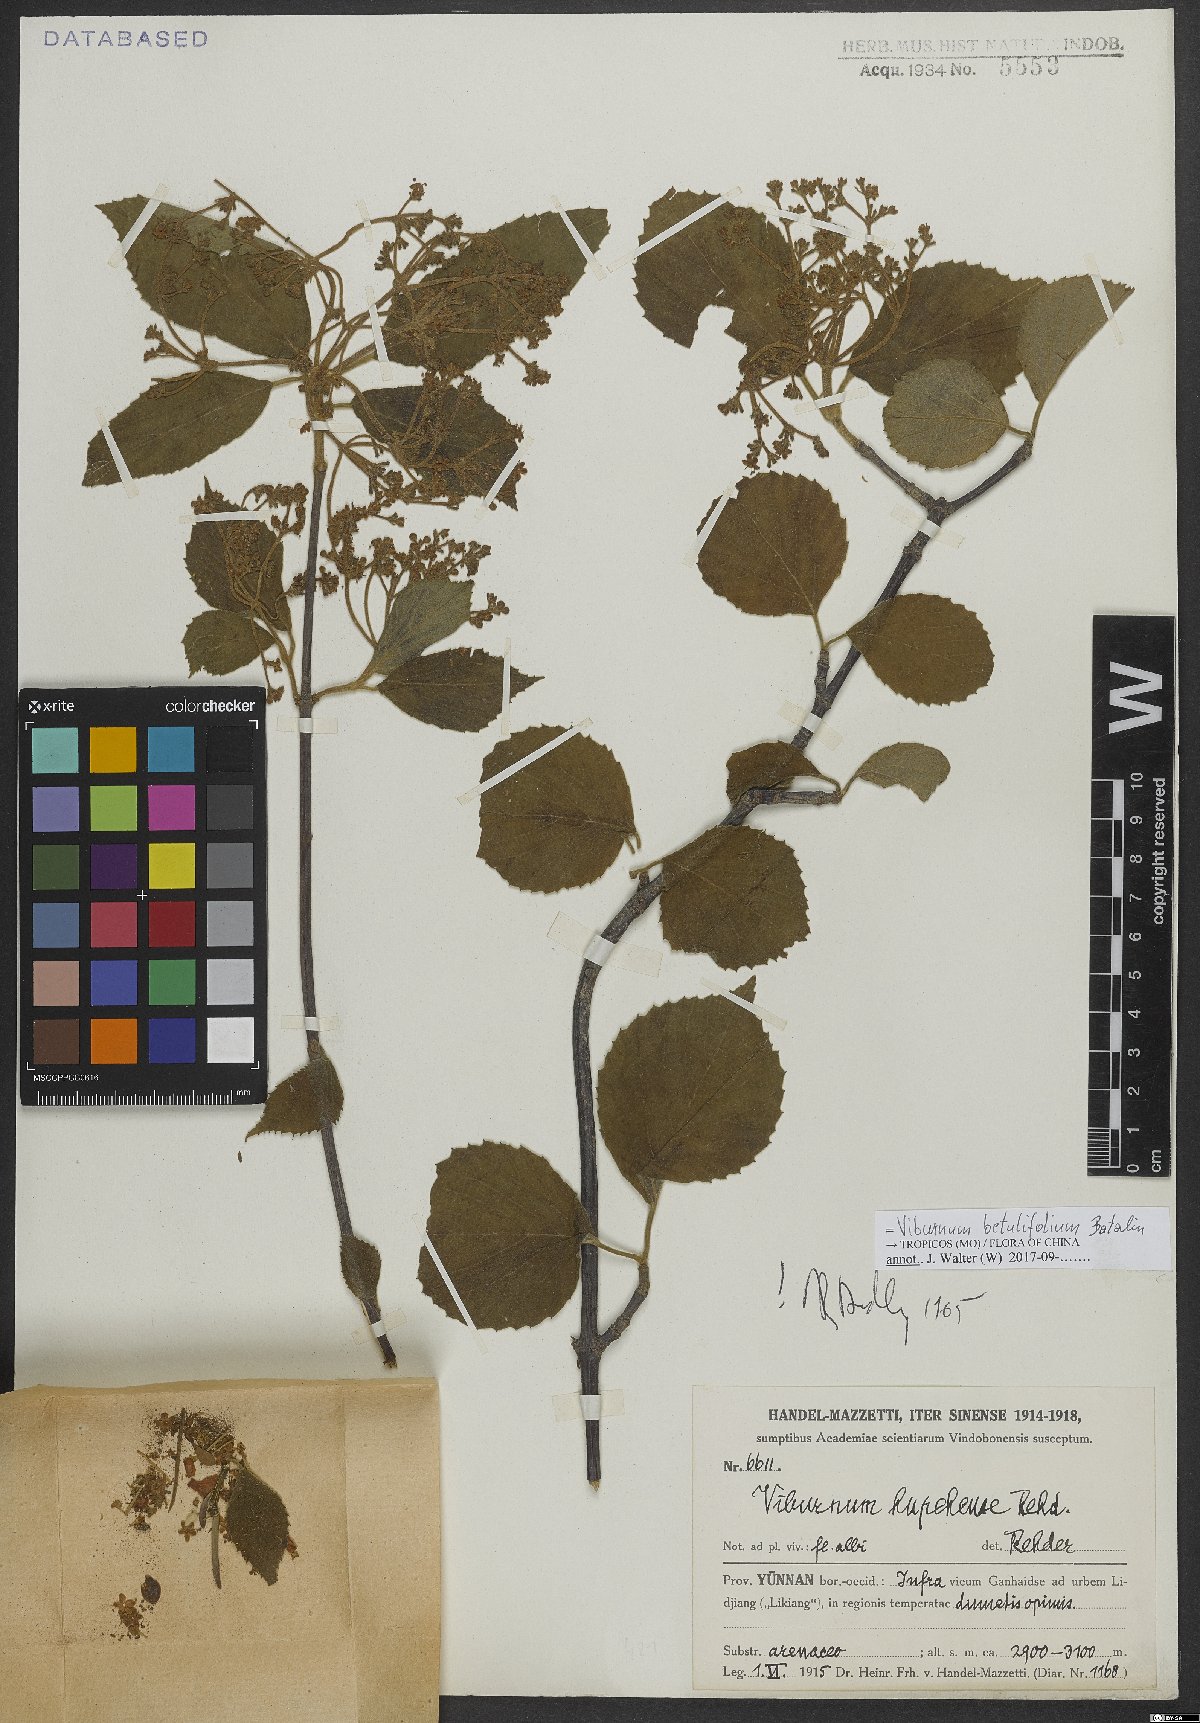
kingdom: Plantae
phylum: Tracheophyta
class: Magnoliopsida
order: Dipsacales
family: Viburnaceae
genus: Viburnum
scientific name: Viburnum betulifolium
